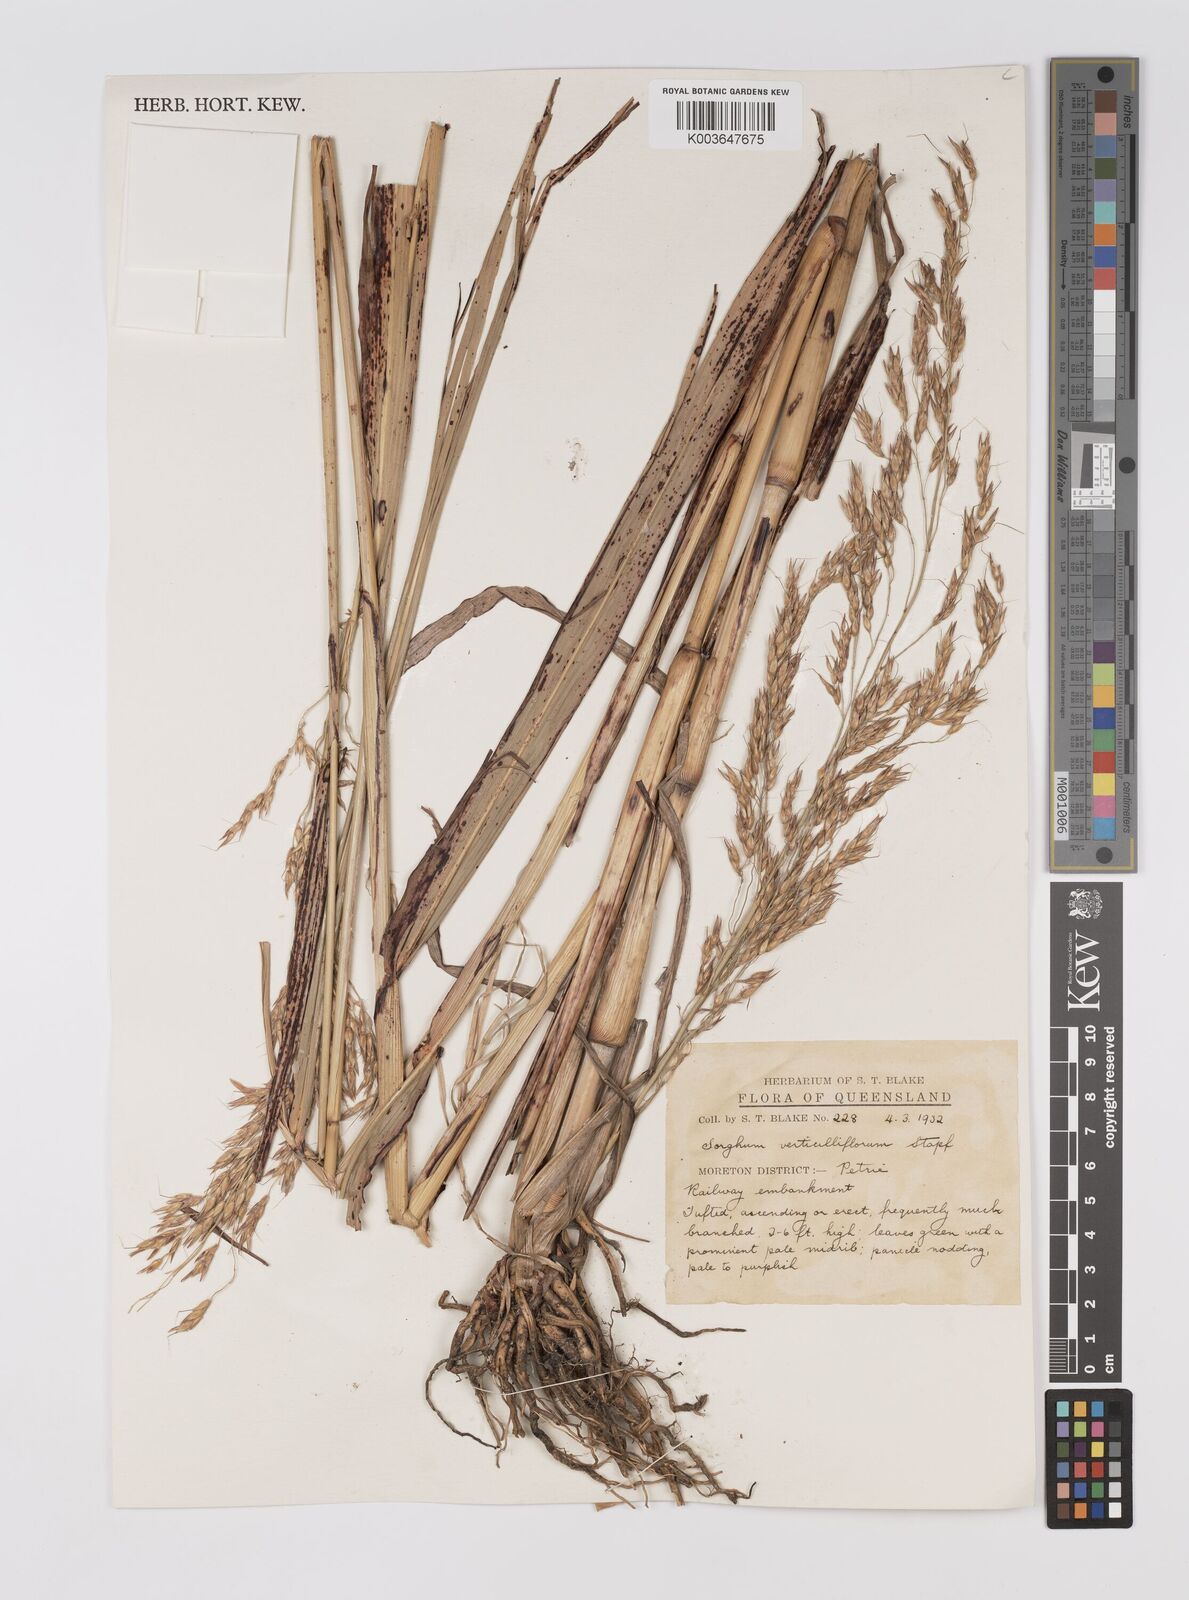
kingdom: Plantae
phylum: Tracheophyta
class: Liliopsida
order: Poales
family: Poaceae
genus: Sorghum
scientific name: Sorghum arundinaceum
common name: Sorghum
